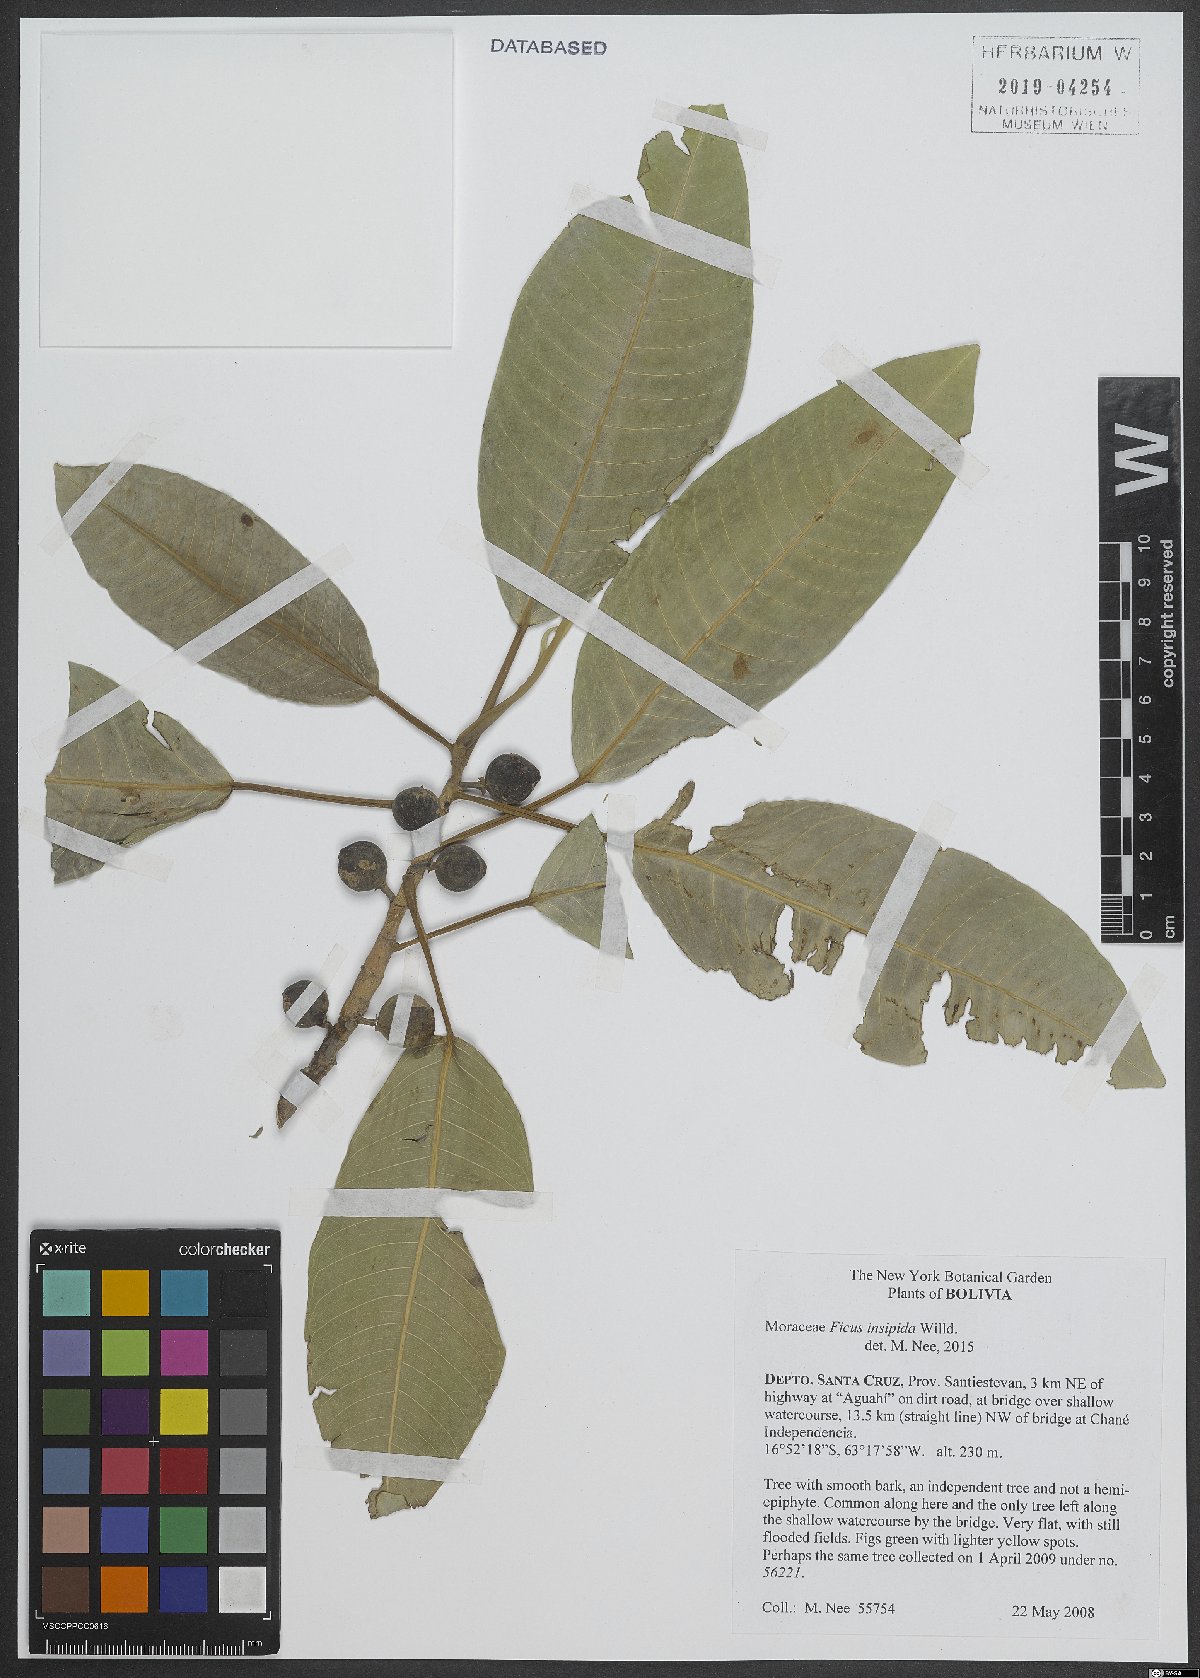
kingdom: Plantae
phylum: Tracheophyta
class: Magnoliopsida
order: Rosales
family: Moraceae
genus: Ficus
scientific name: Ficus insipida
